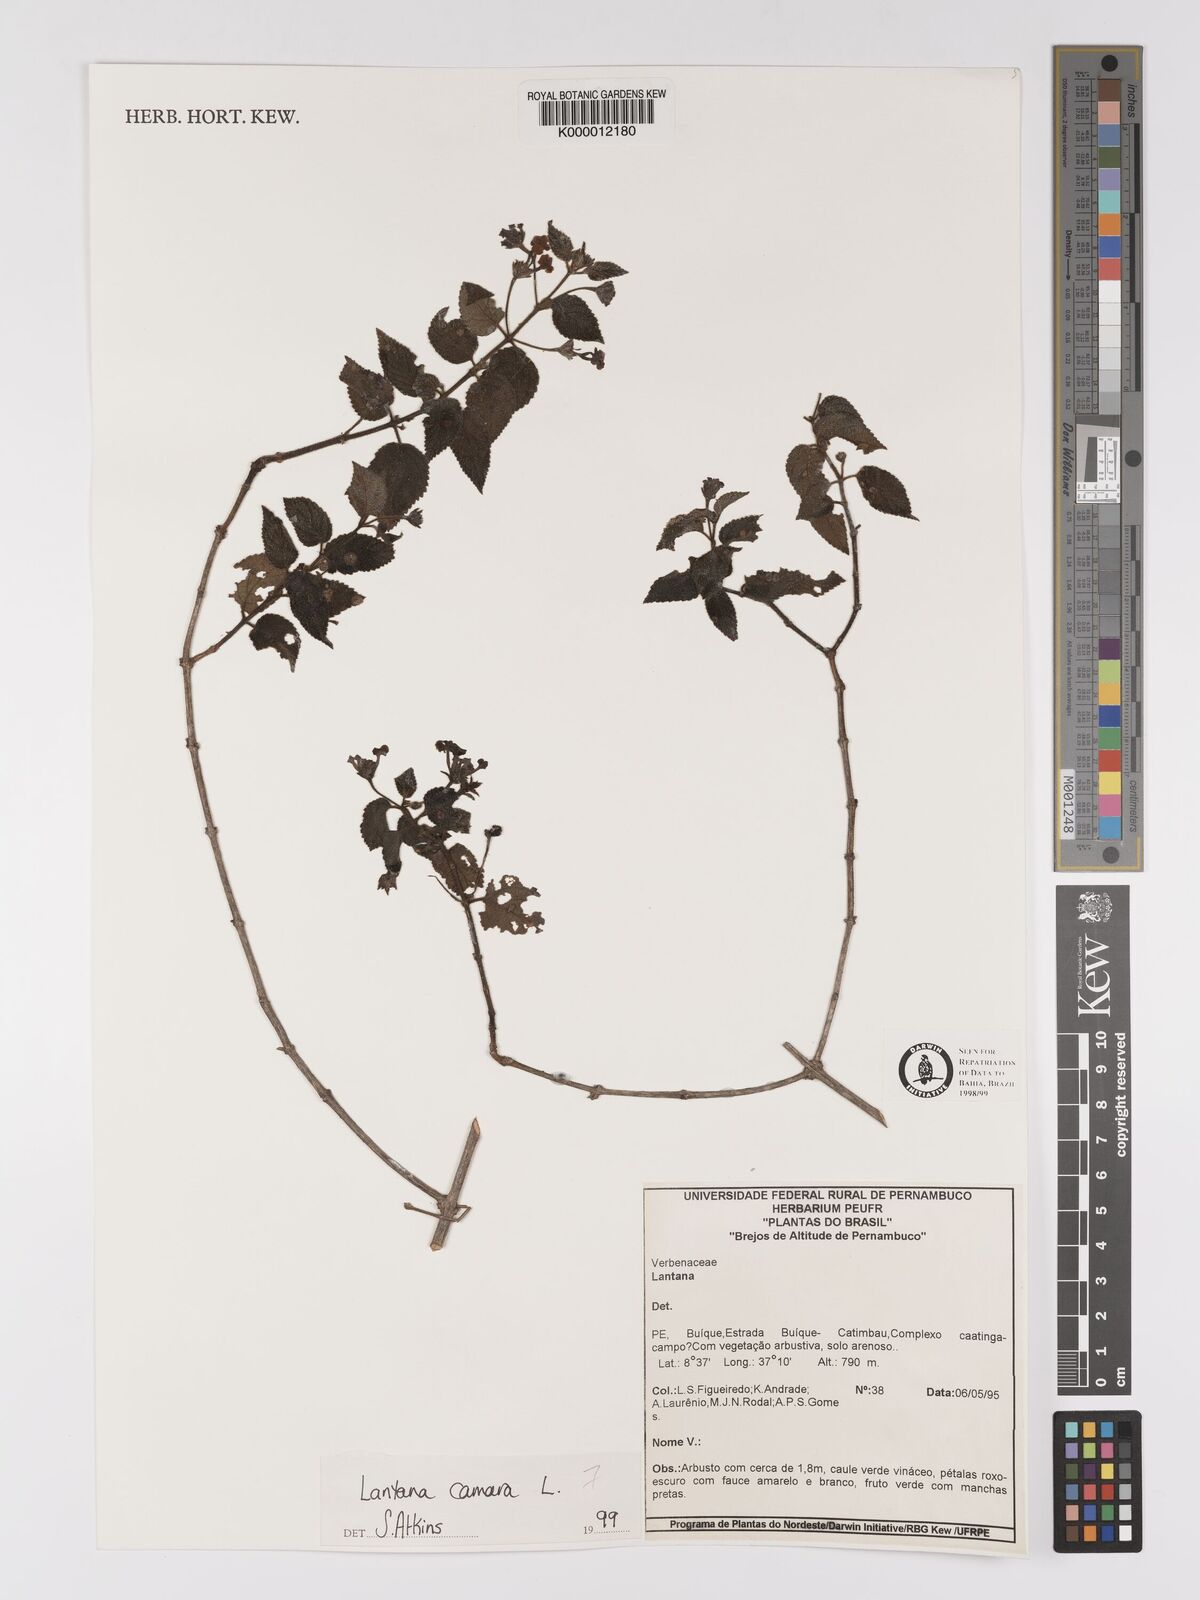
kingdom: Plantae
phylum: Tracheophyta
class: Magnoliopsida
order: Lamiales
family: Verbenaceae
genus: Lantana
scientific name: Lantana camara
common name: Lantana
